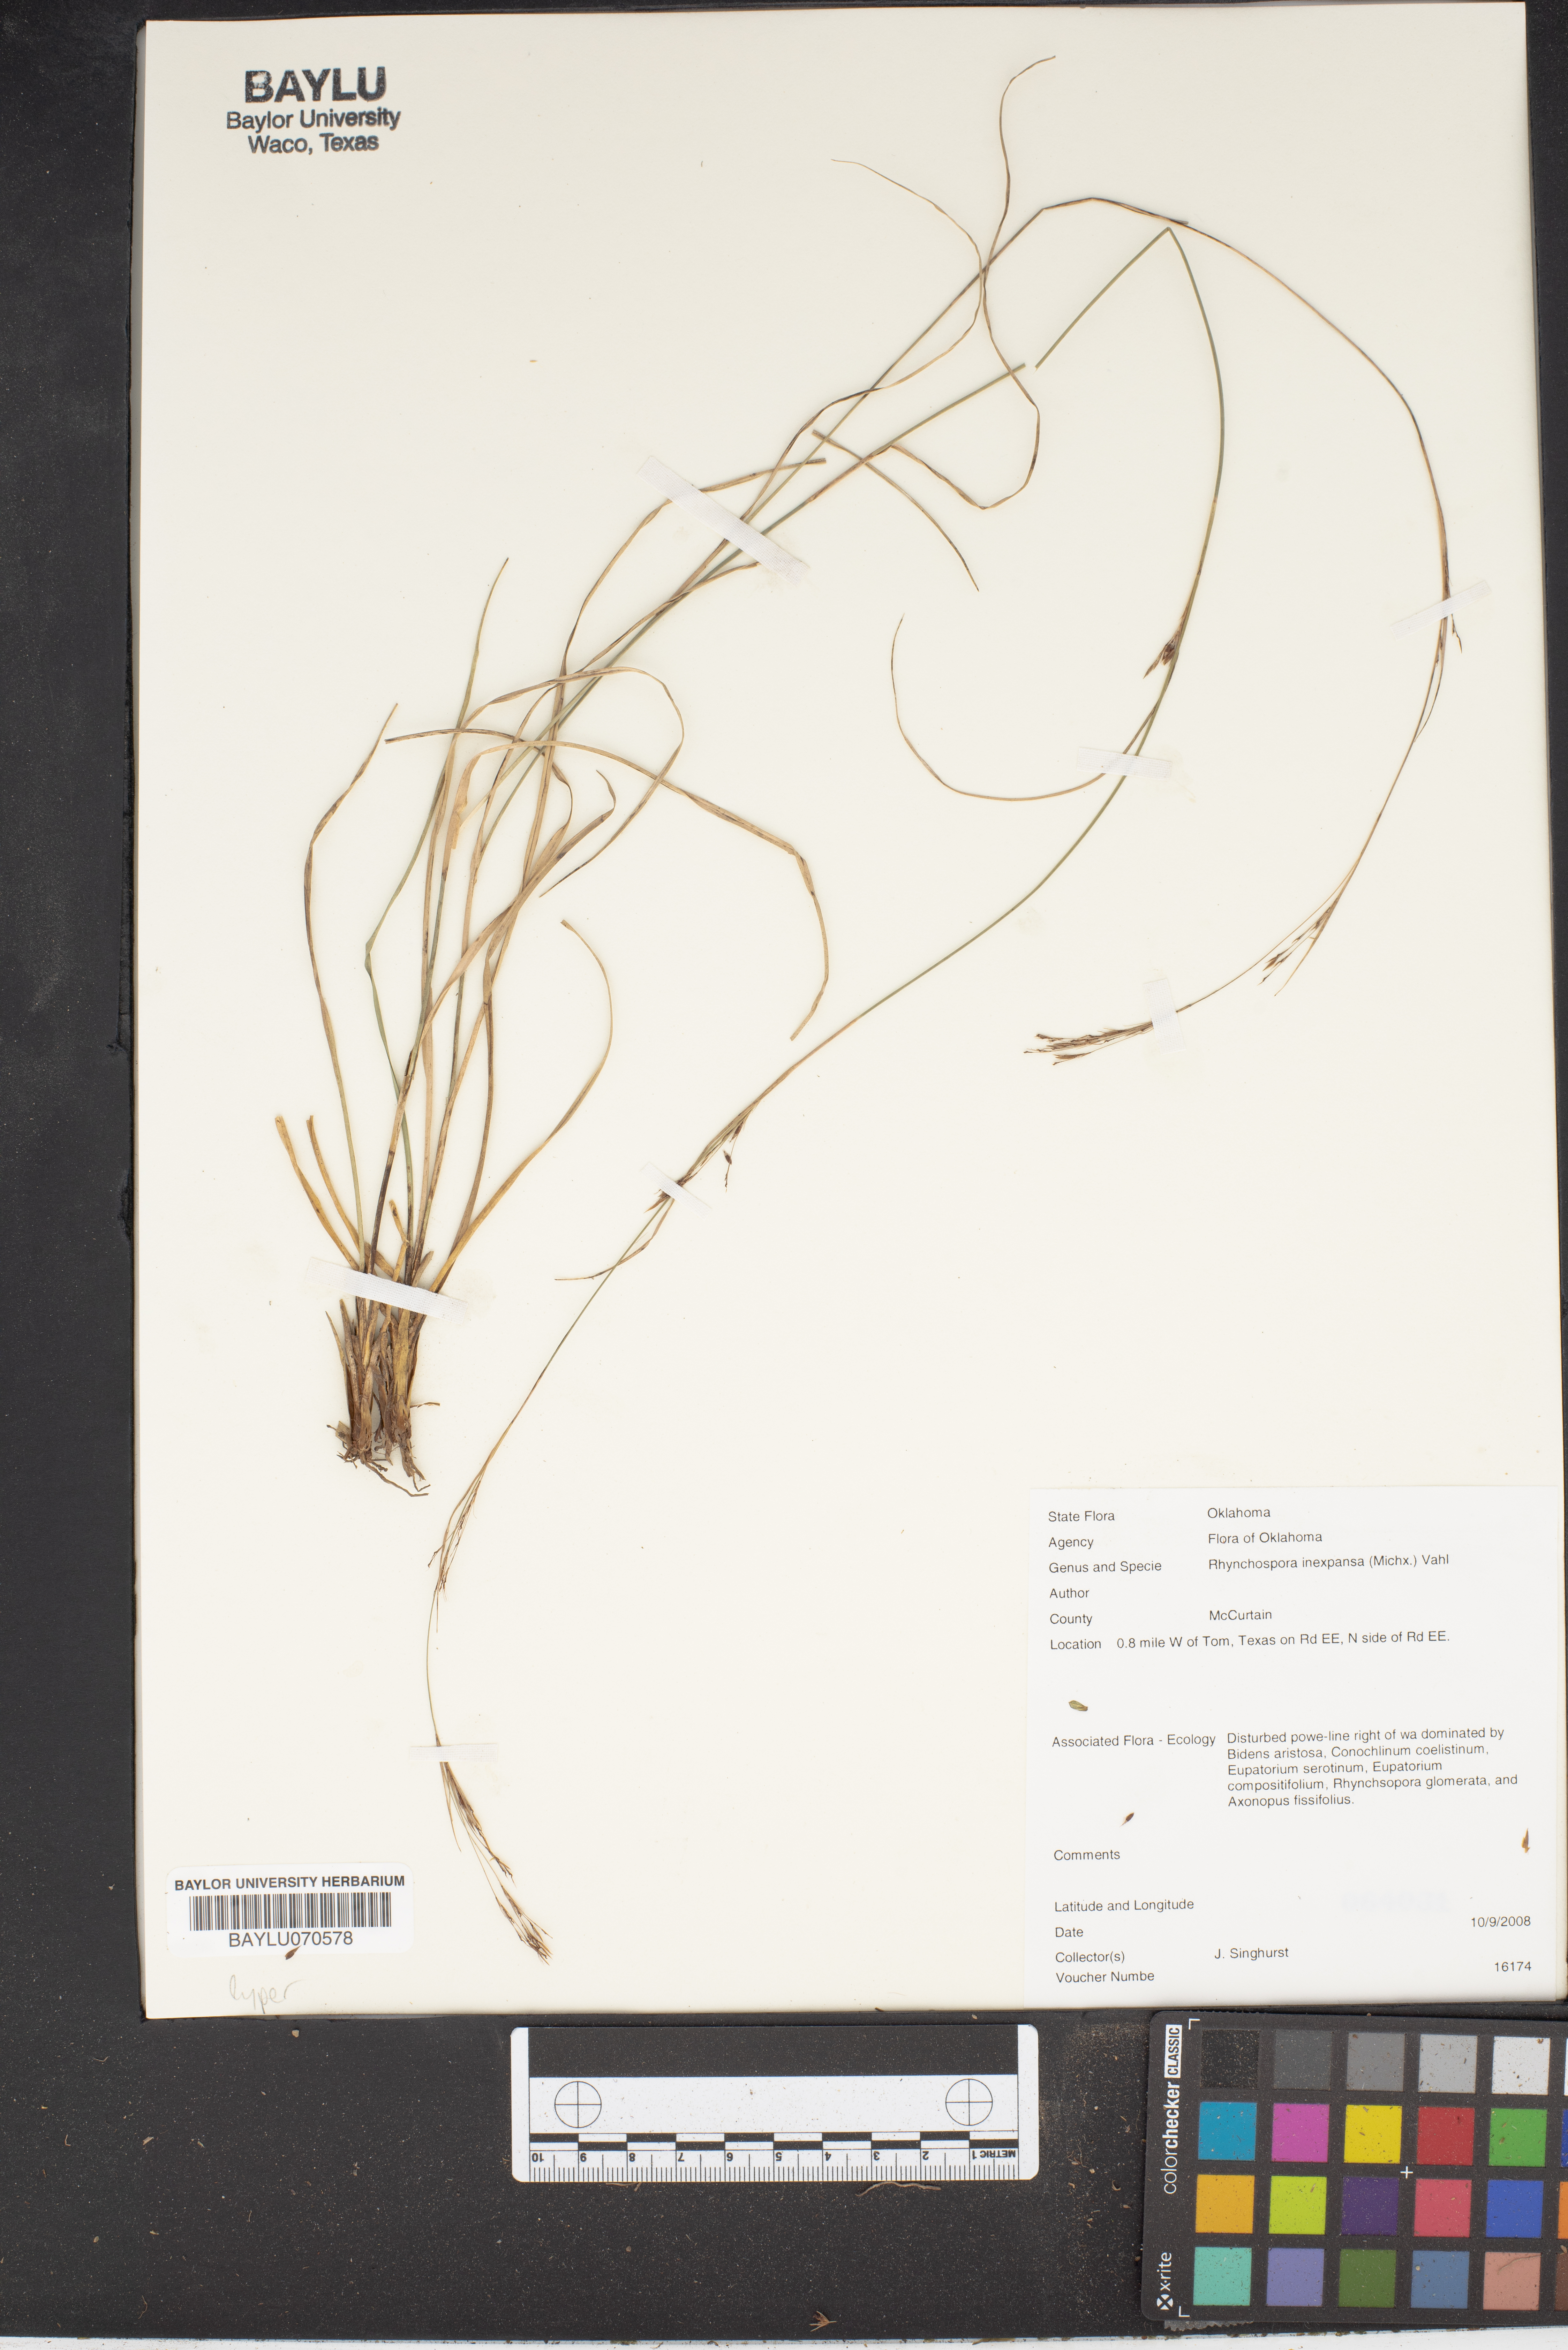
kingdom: Plantae
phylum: Tracheophyta
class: Liliopsida
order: Poales
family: Cyperaceae
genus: Rhynchospora
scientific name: Rhynchospora inexpansa
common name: Nodding beaksedge
